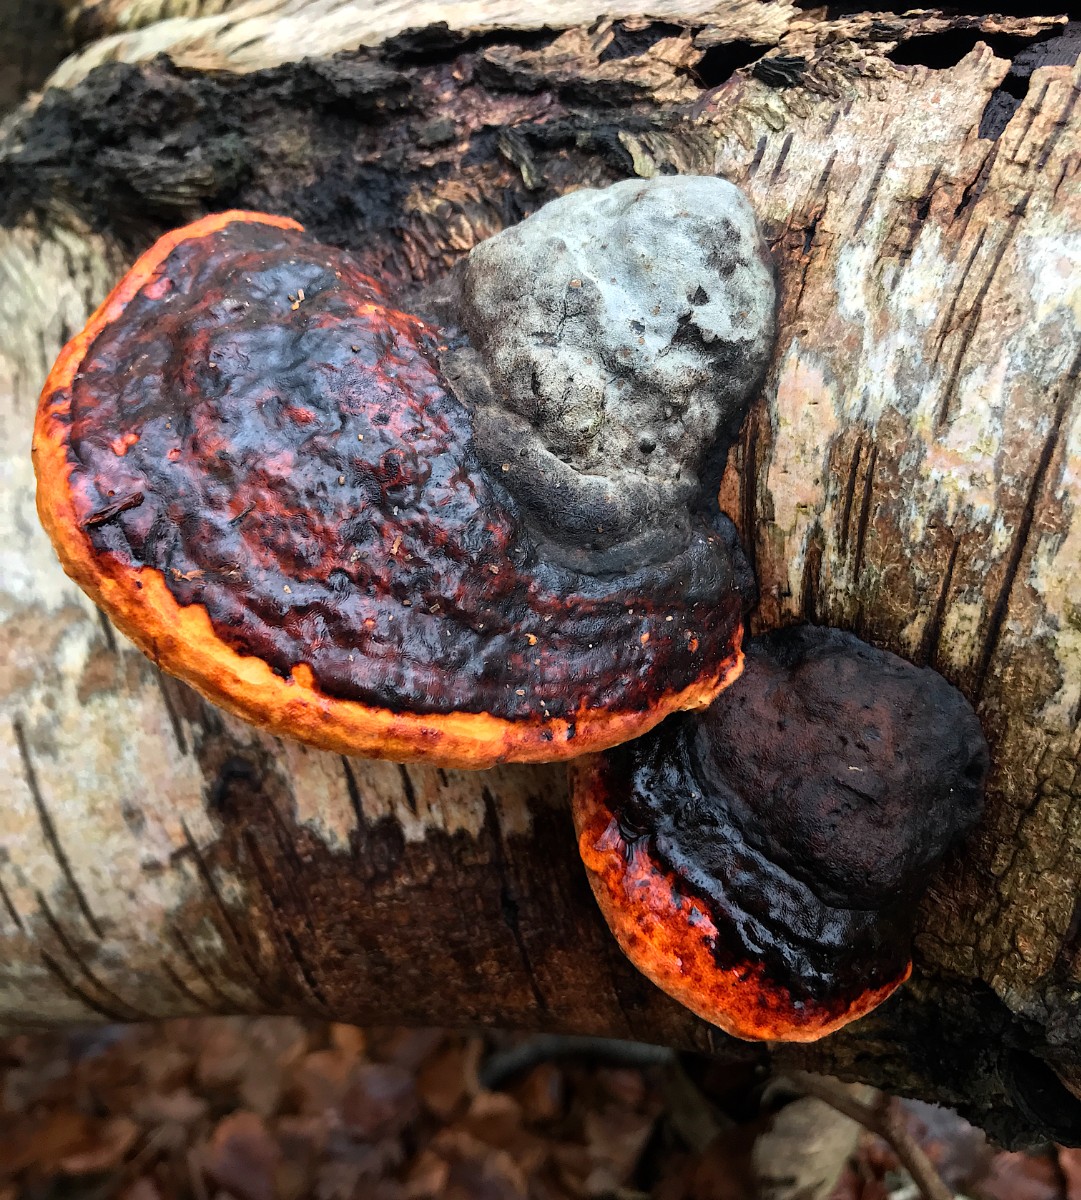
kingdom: Fungi
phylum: Basidiomycota
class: Agaricomycetes
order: Polyporales
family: Fomitopsidaceae
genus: Fomitopsis
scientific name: Fomitopsis pinicola
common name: randbæltet hovporesvamp
